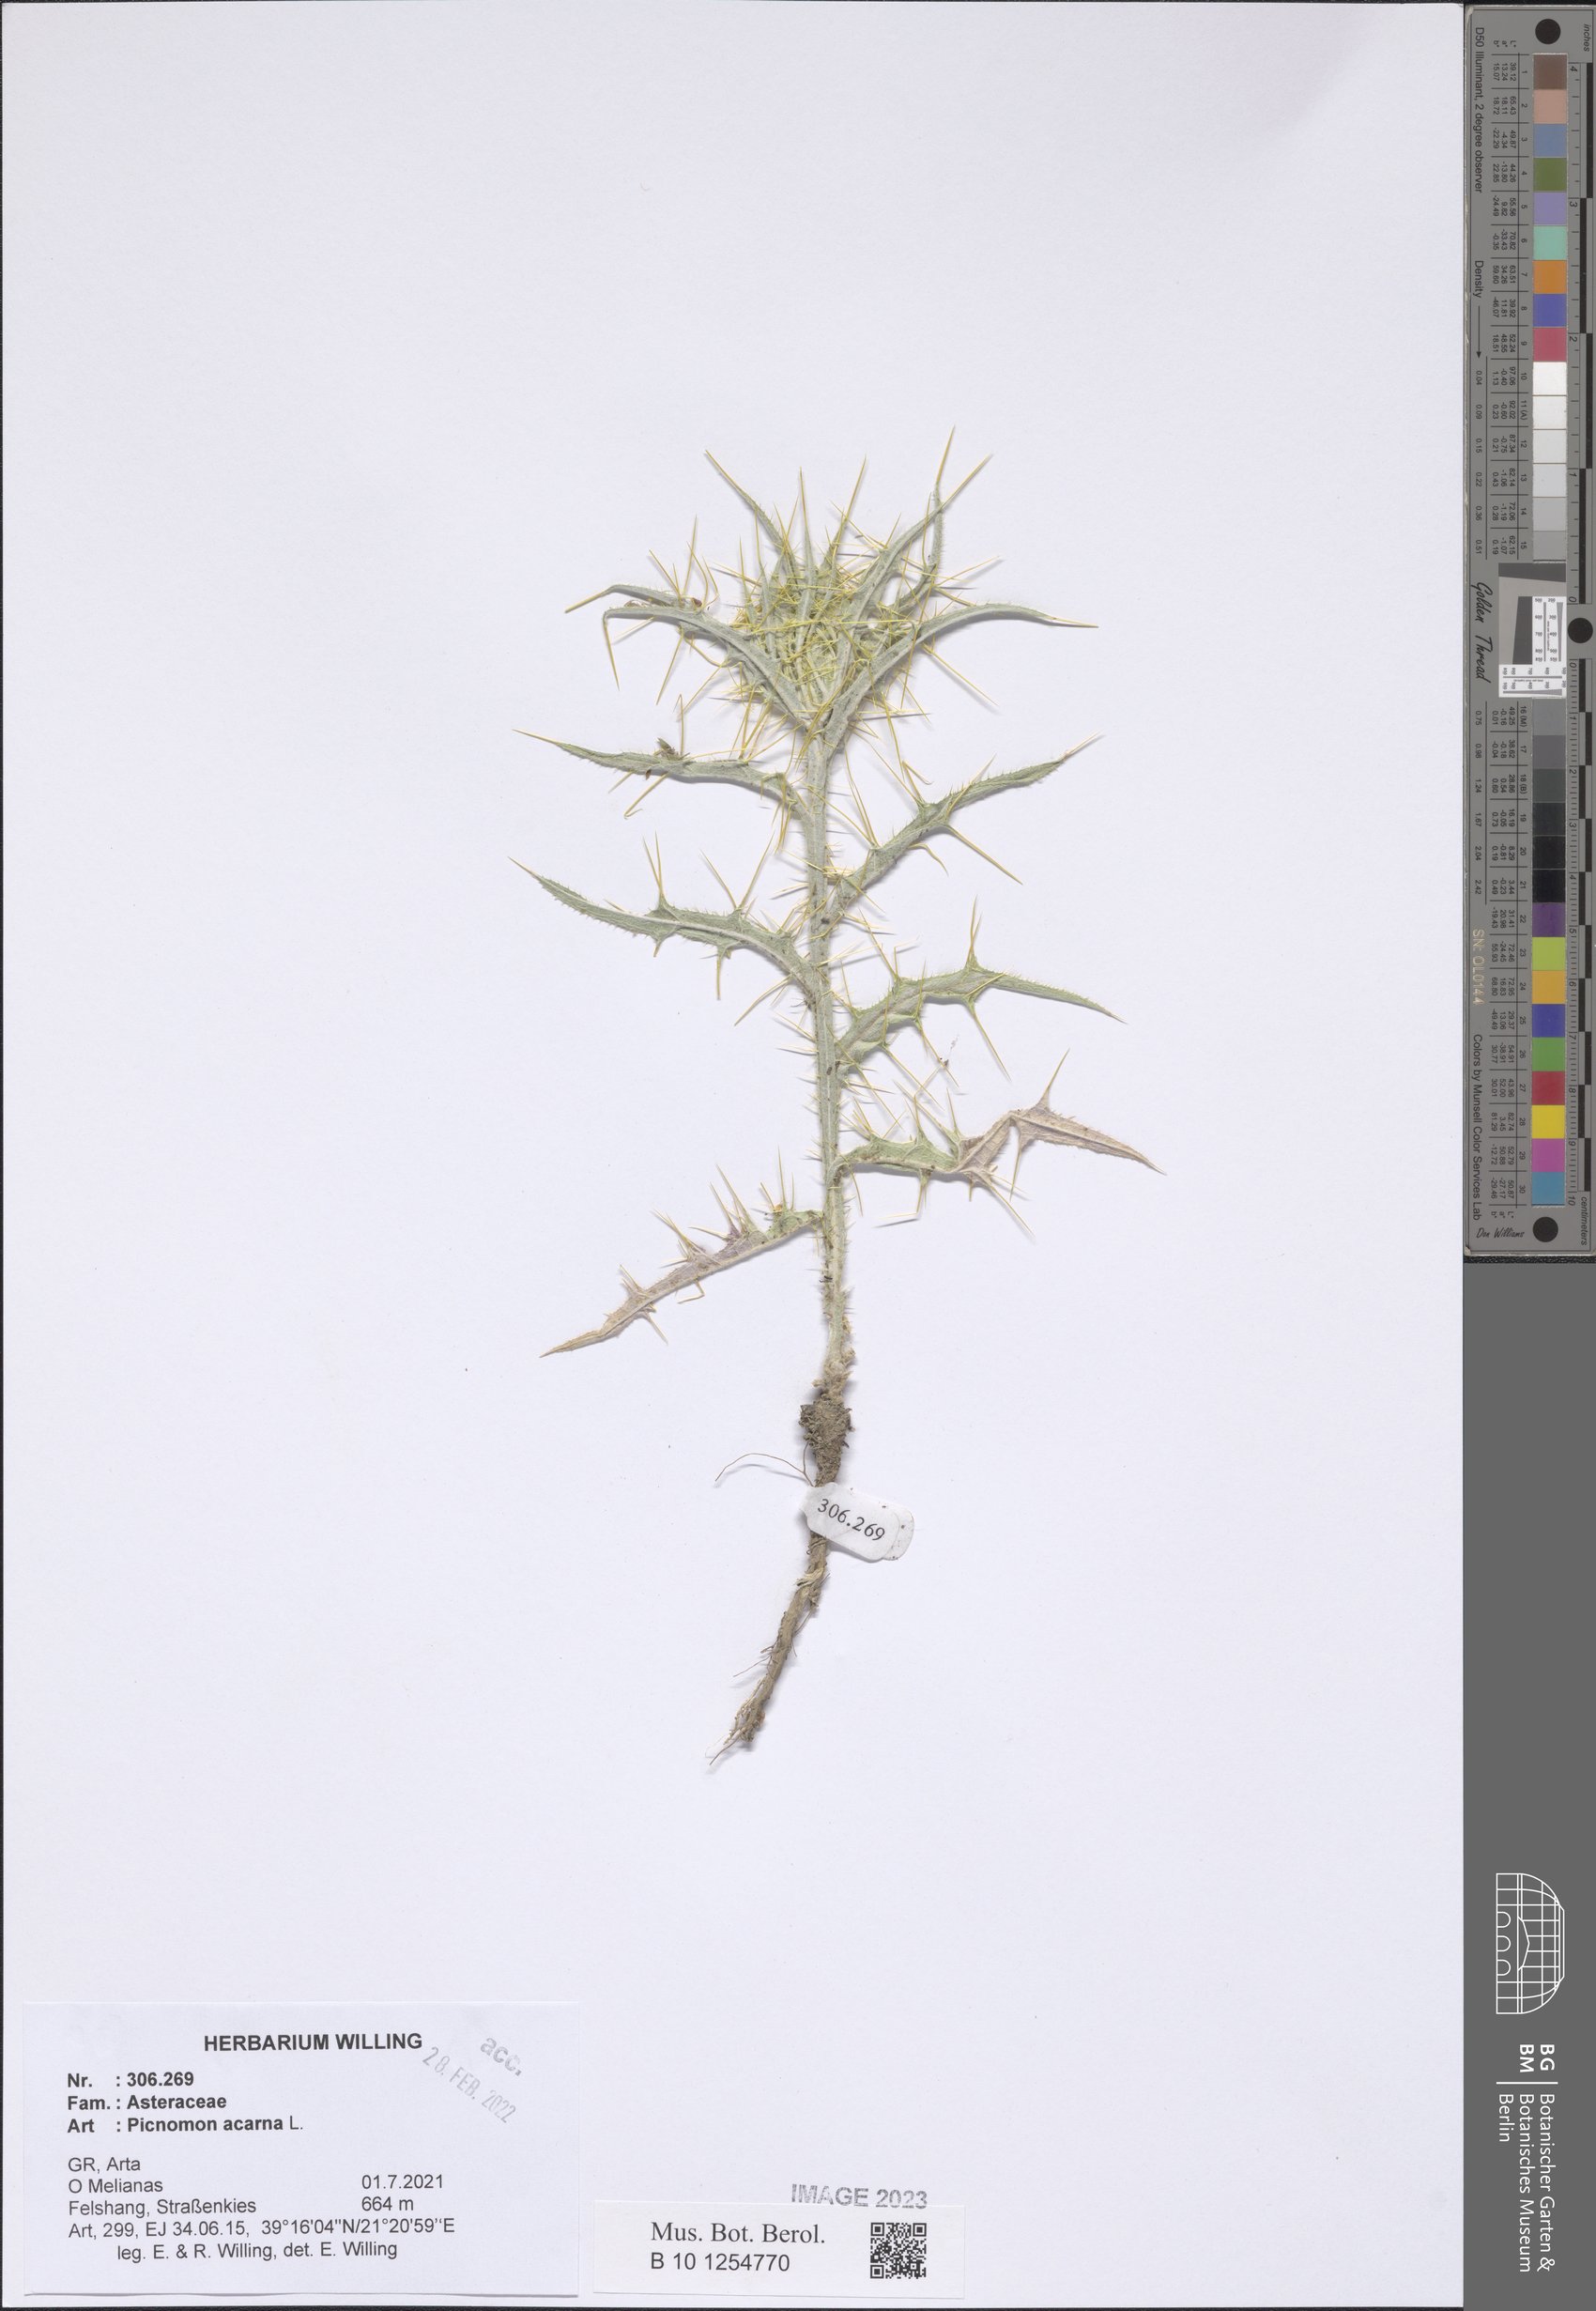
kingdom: Plantae
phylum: Tracheophyta
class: Magnoliopsida
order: Asterales
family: Asteraceae
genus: Picnomon
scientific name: Picnomon acarna
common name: Soldier thistle
